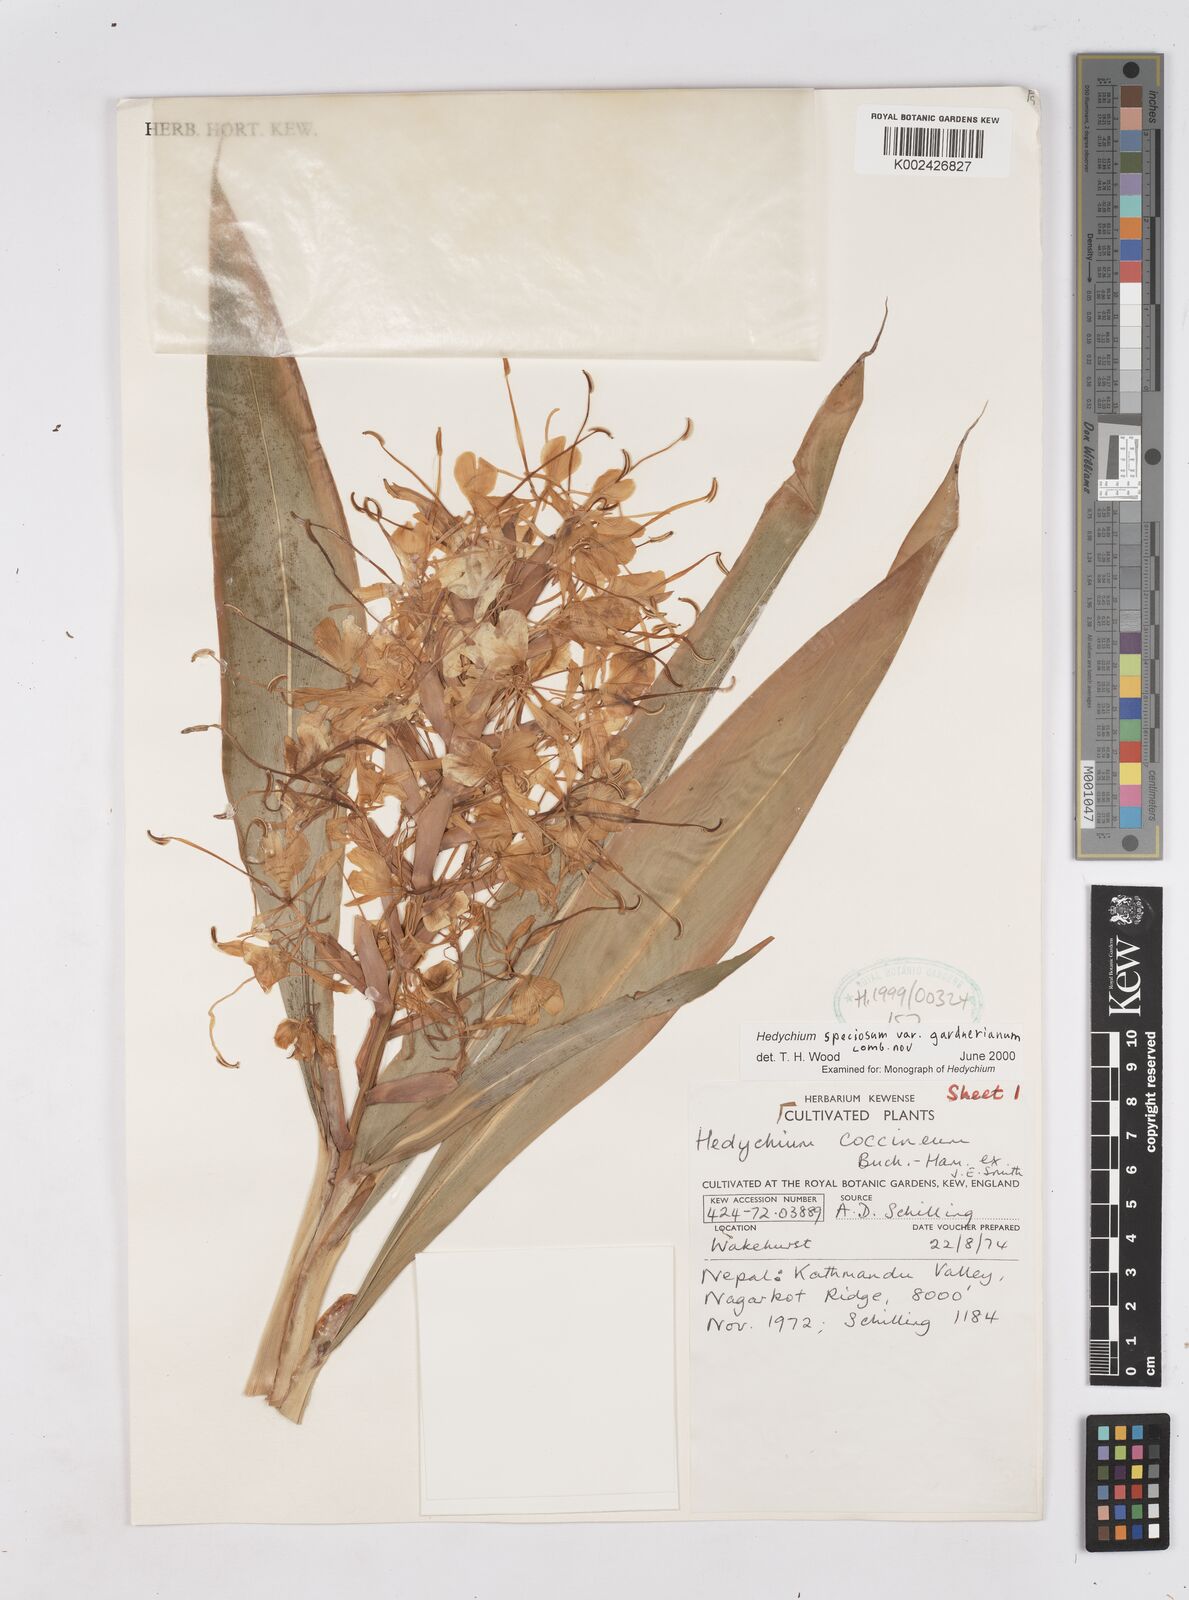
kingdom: Plantae
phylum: Tracheophyta
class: Liliopsida
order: Zingiberales
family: Zingiberaceae
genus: Hedychium
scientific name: Hedychium coccineum
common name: Red ginger-lily
